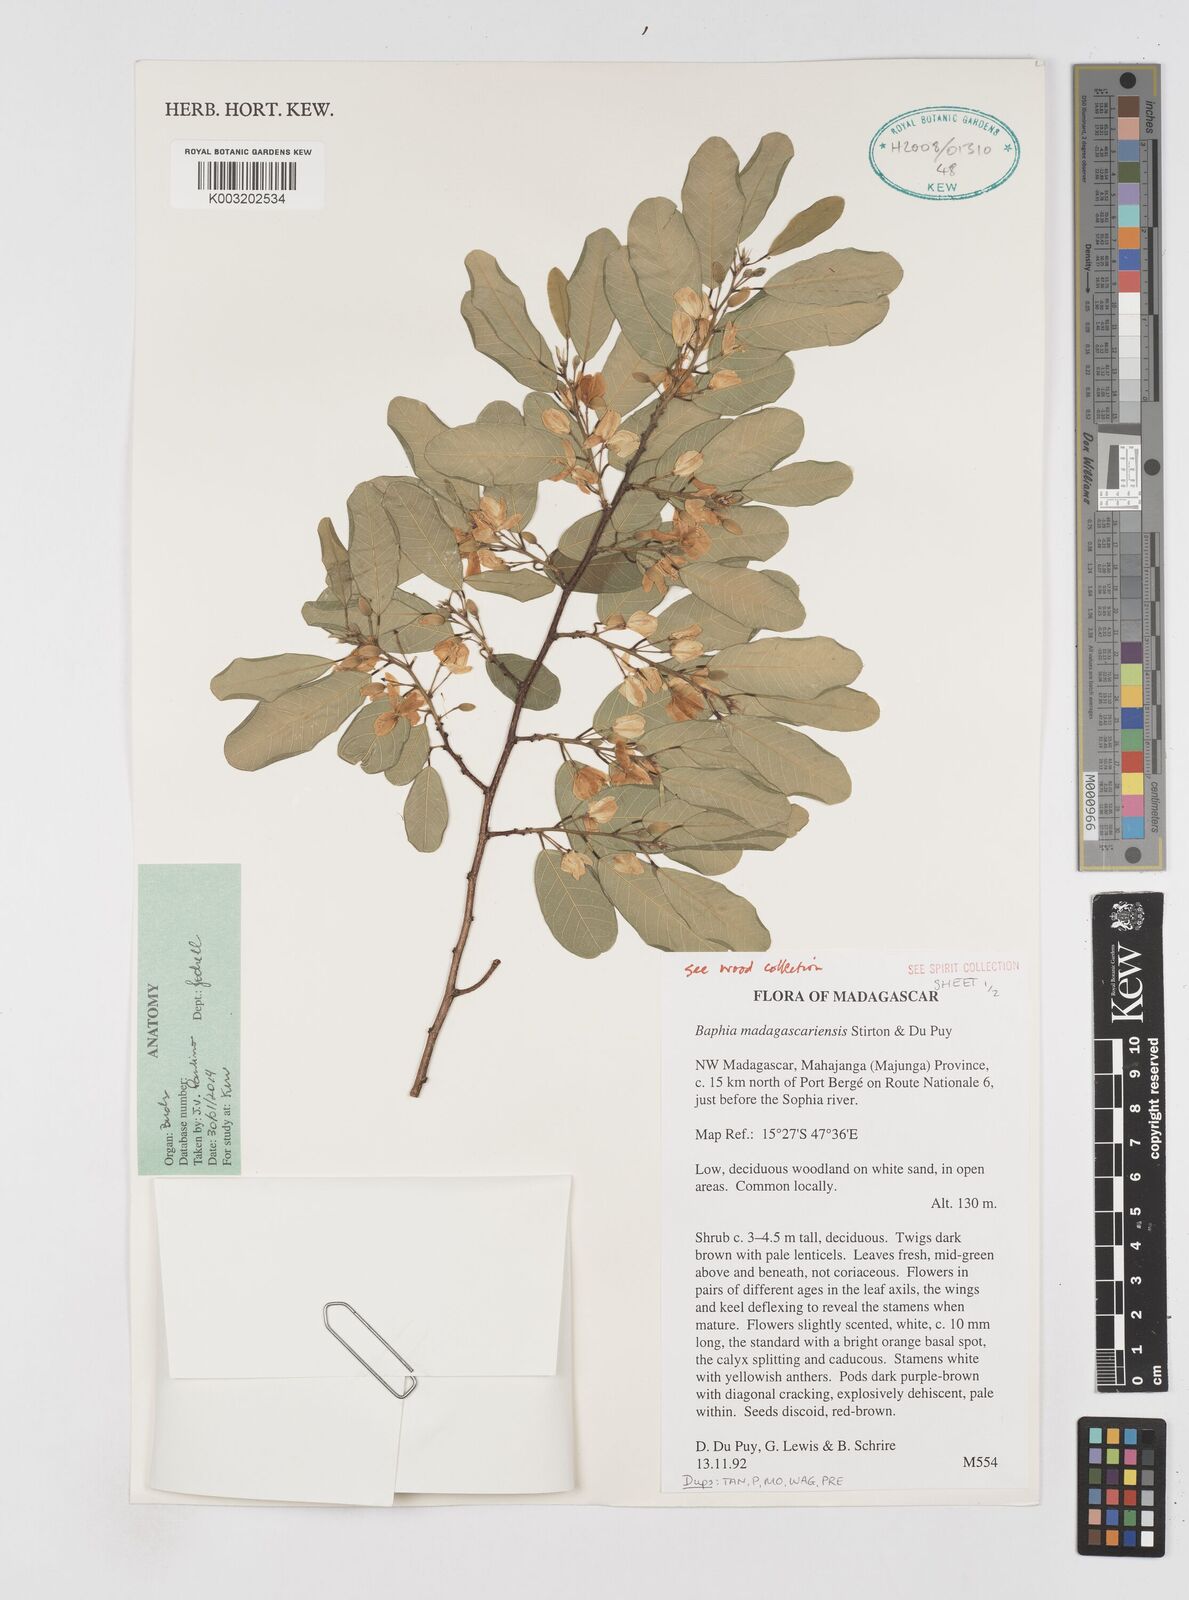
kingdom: Plantae
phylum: Tracheophyta
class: Magnoliopsida
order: Fabales
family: Fabaceae
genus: Baphia
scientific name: Baphia madagascariensis
